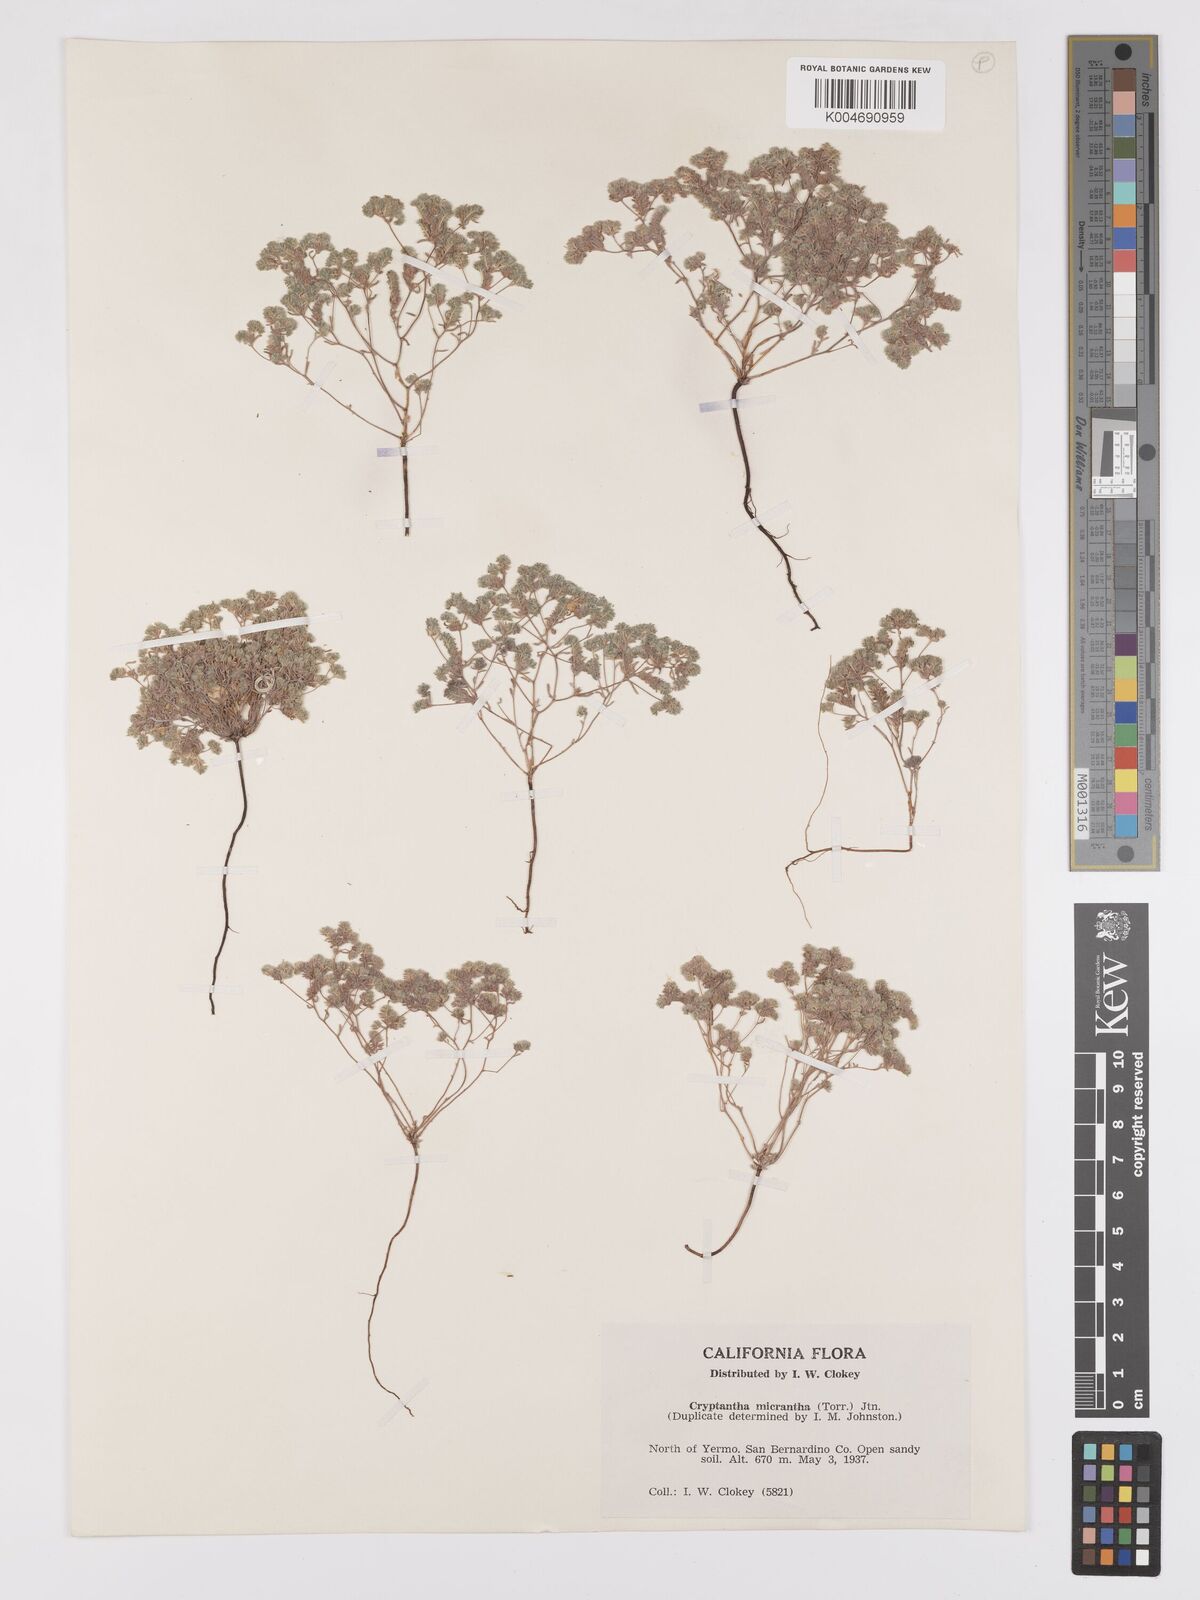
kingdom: Plantae
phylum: Tracheophyta
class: Magnoliopsida
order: Boraginales
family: Boraginaceae
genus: Eremocarya
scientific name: Eremocarya micrantha
